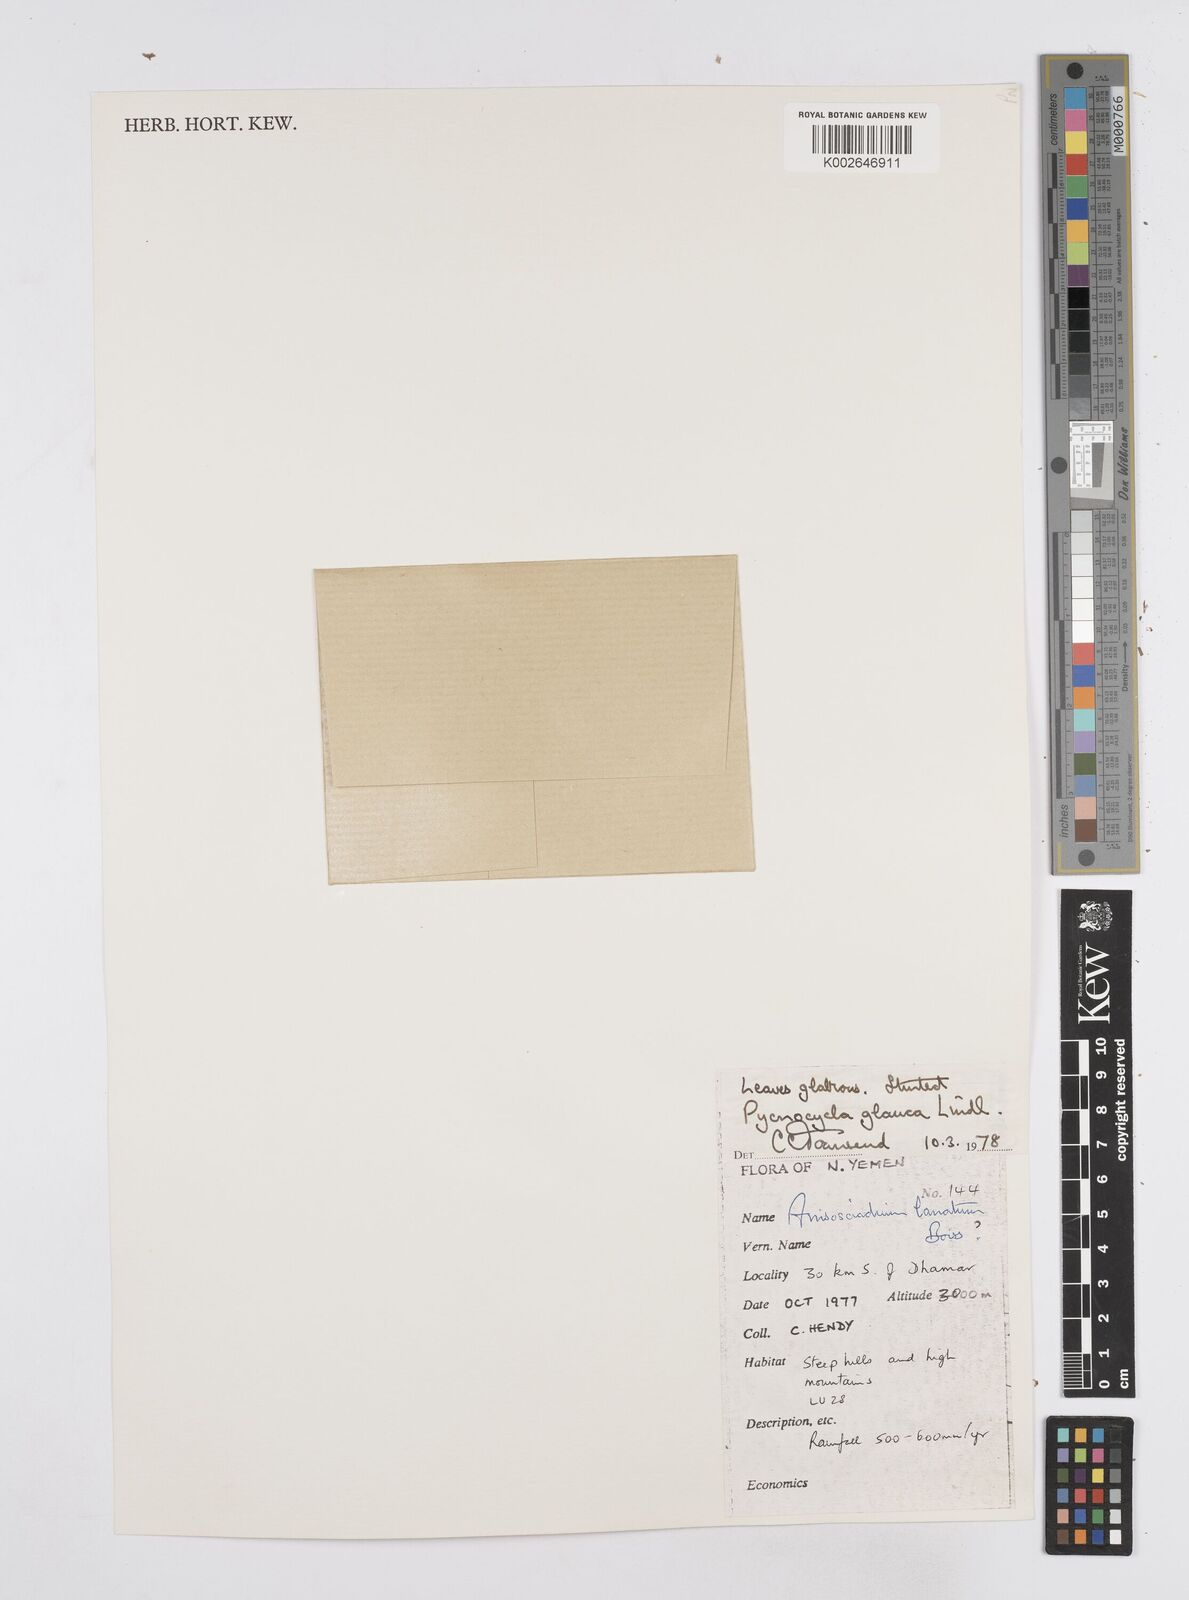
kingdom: Plantae
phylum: Tracheophyta
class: Magnoliopsida
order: Apiales
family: Apiaceae
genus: Pycnocycla
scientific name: Pycnocycla glauca
